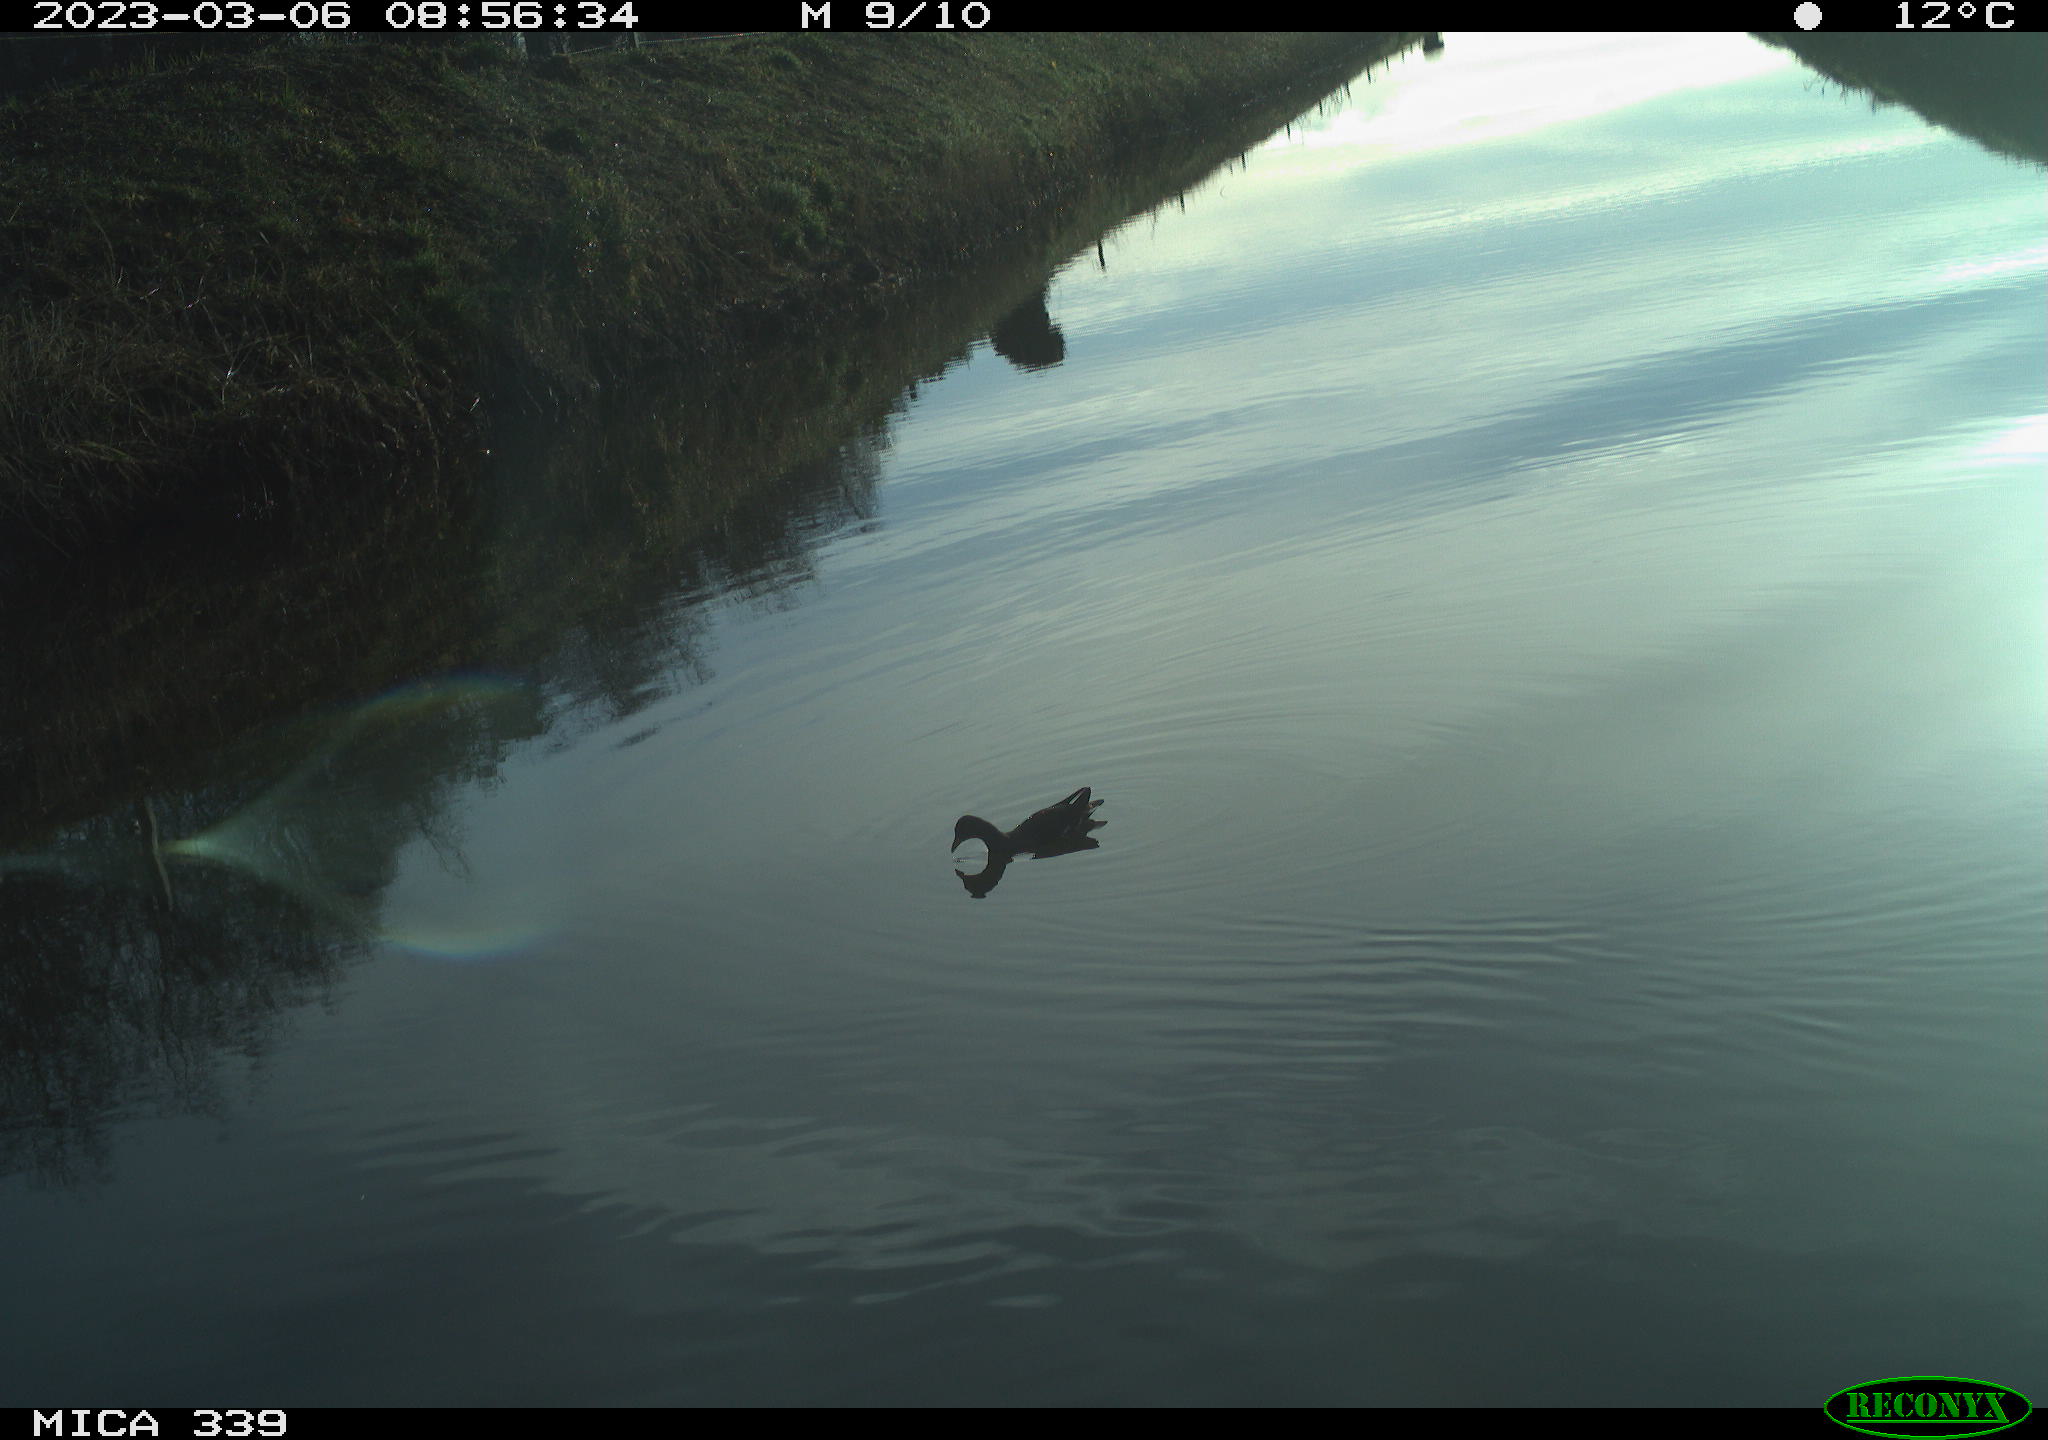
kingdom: Animalia
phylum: Chordata
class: Aves
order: Gruiformes
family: Rallidae
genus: Gallinula
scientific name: Gallinula chloropus
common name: Common moorhen
